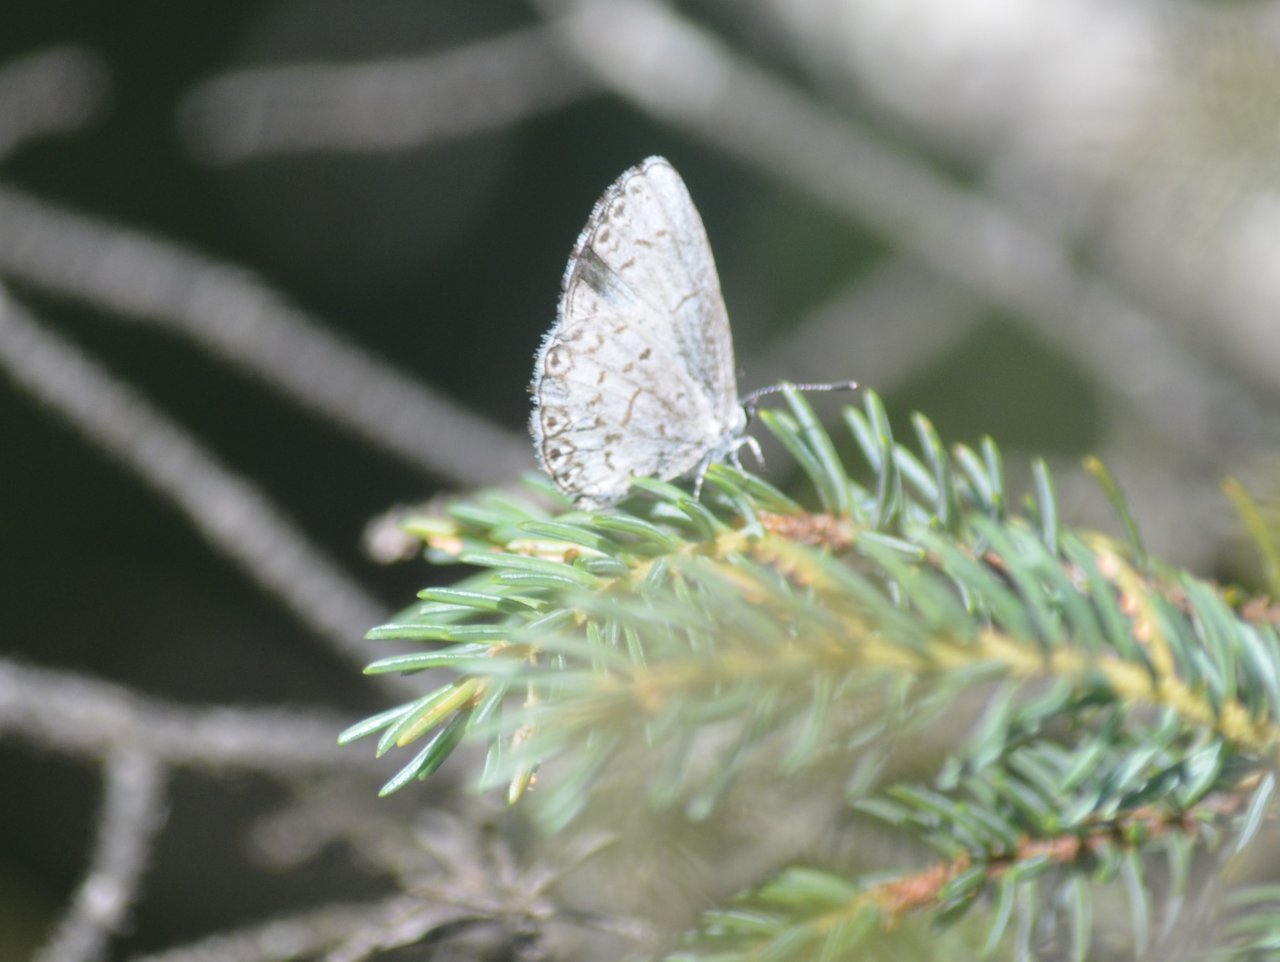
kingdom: Animalia
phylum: Arthropoda
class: Insecta
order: Lepidoptera
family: Lycaenidae
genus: Celastrina
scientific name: Celastrina lucia
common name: Northern Spring Azure
